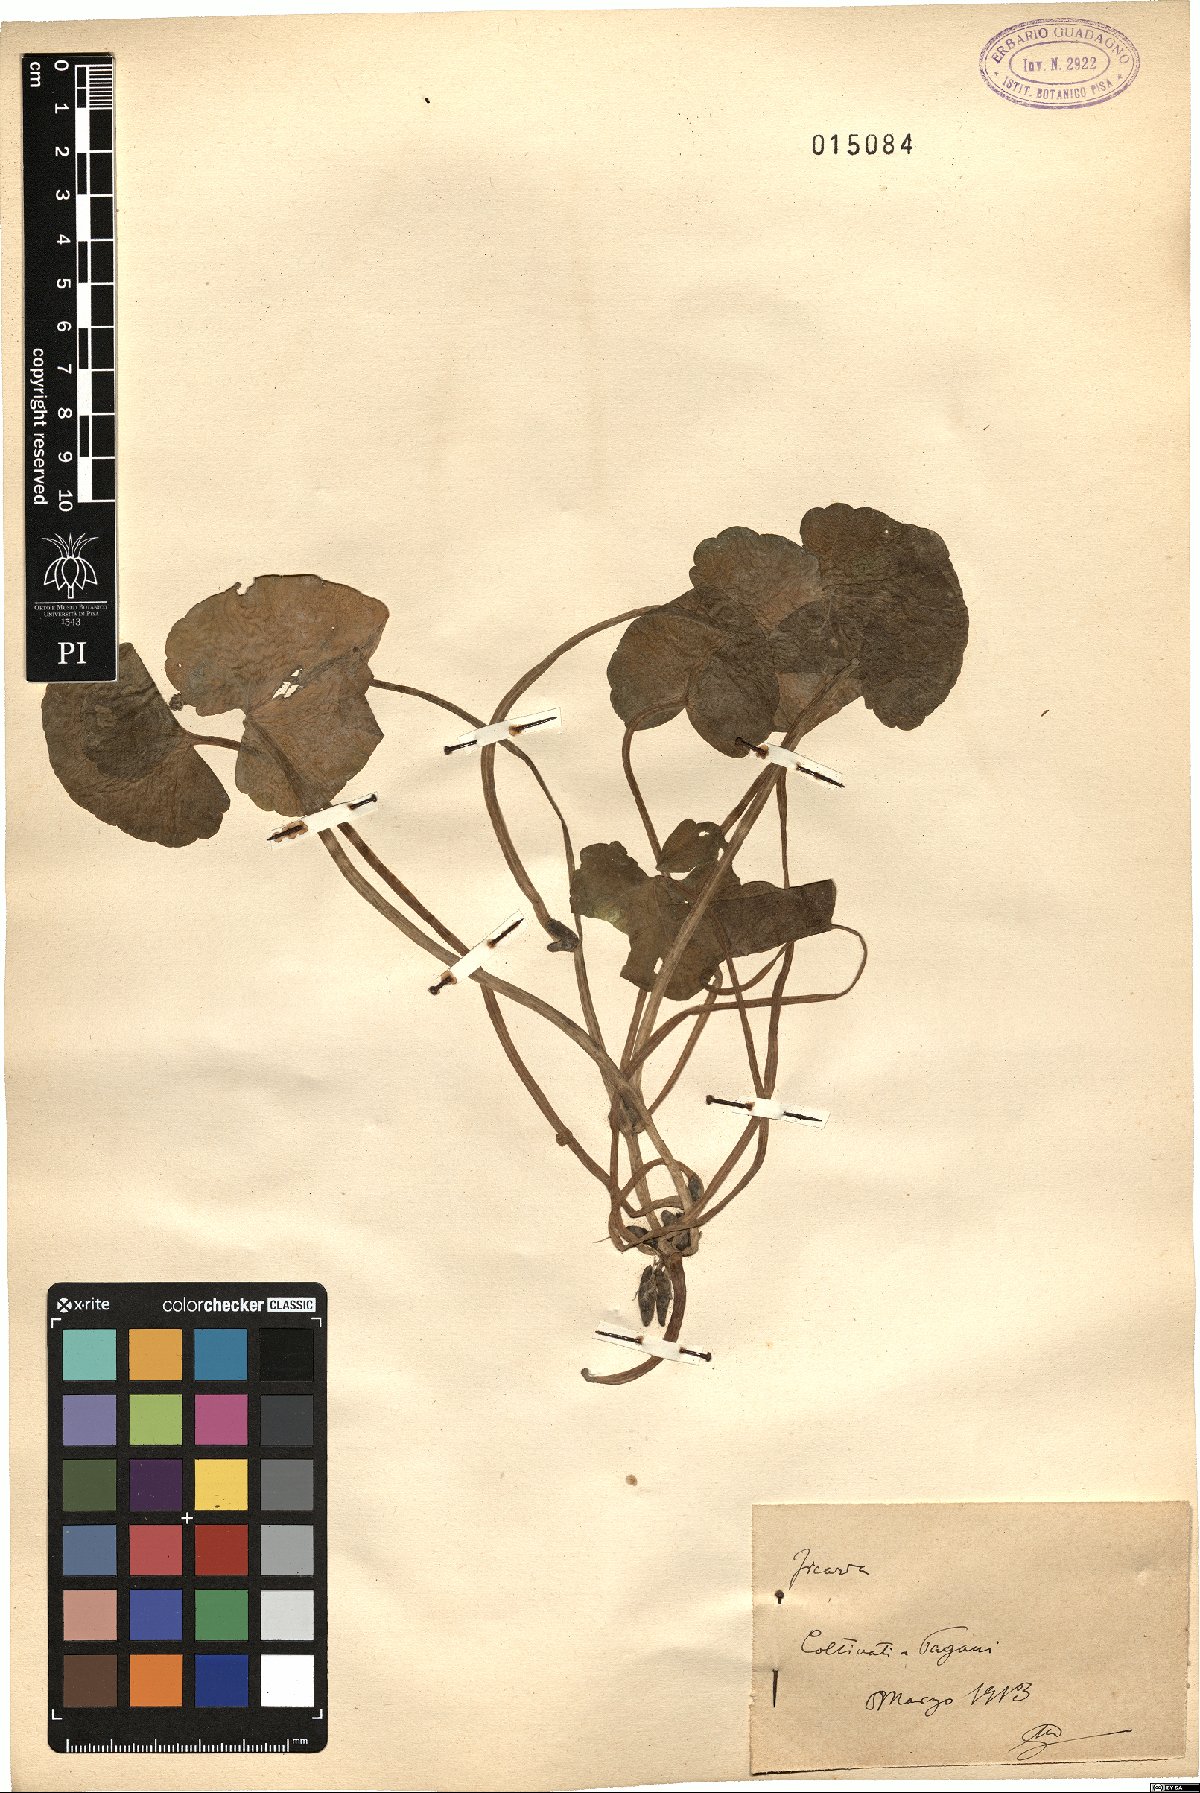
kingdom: Plantae
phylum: Tracheophyta
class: Magnoliopsida
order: Ranunculales
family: Ranunculaceae
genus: Ficaria
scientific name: Ficaria
